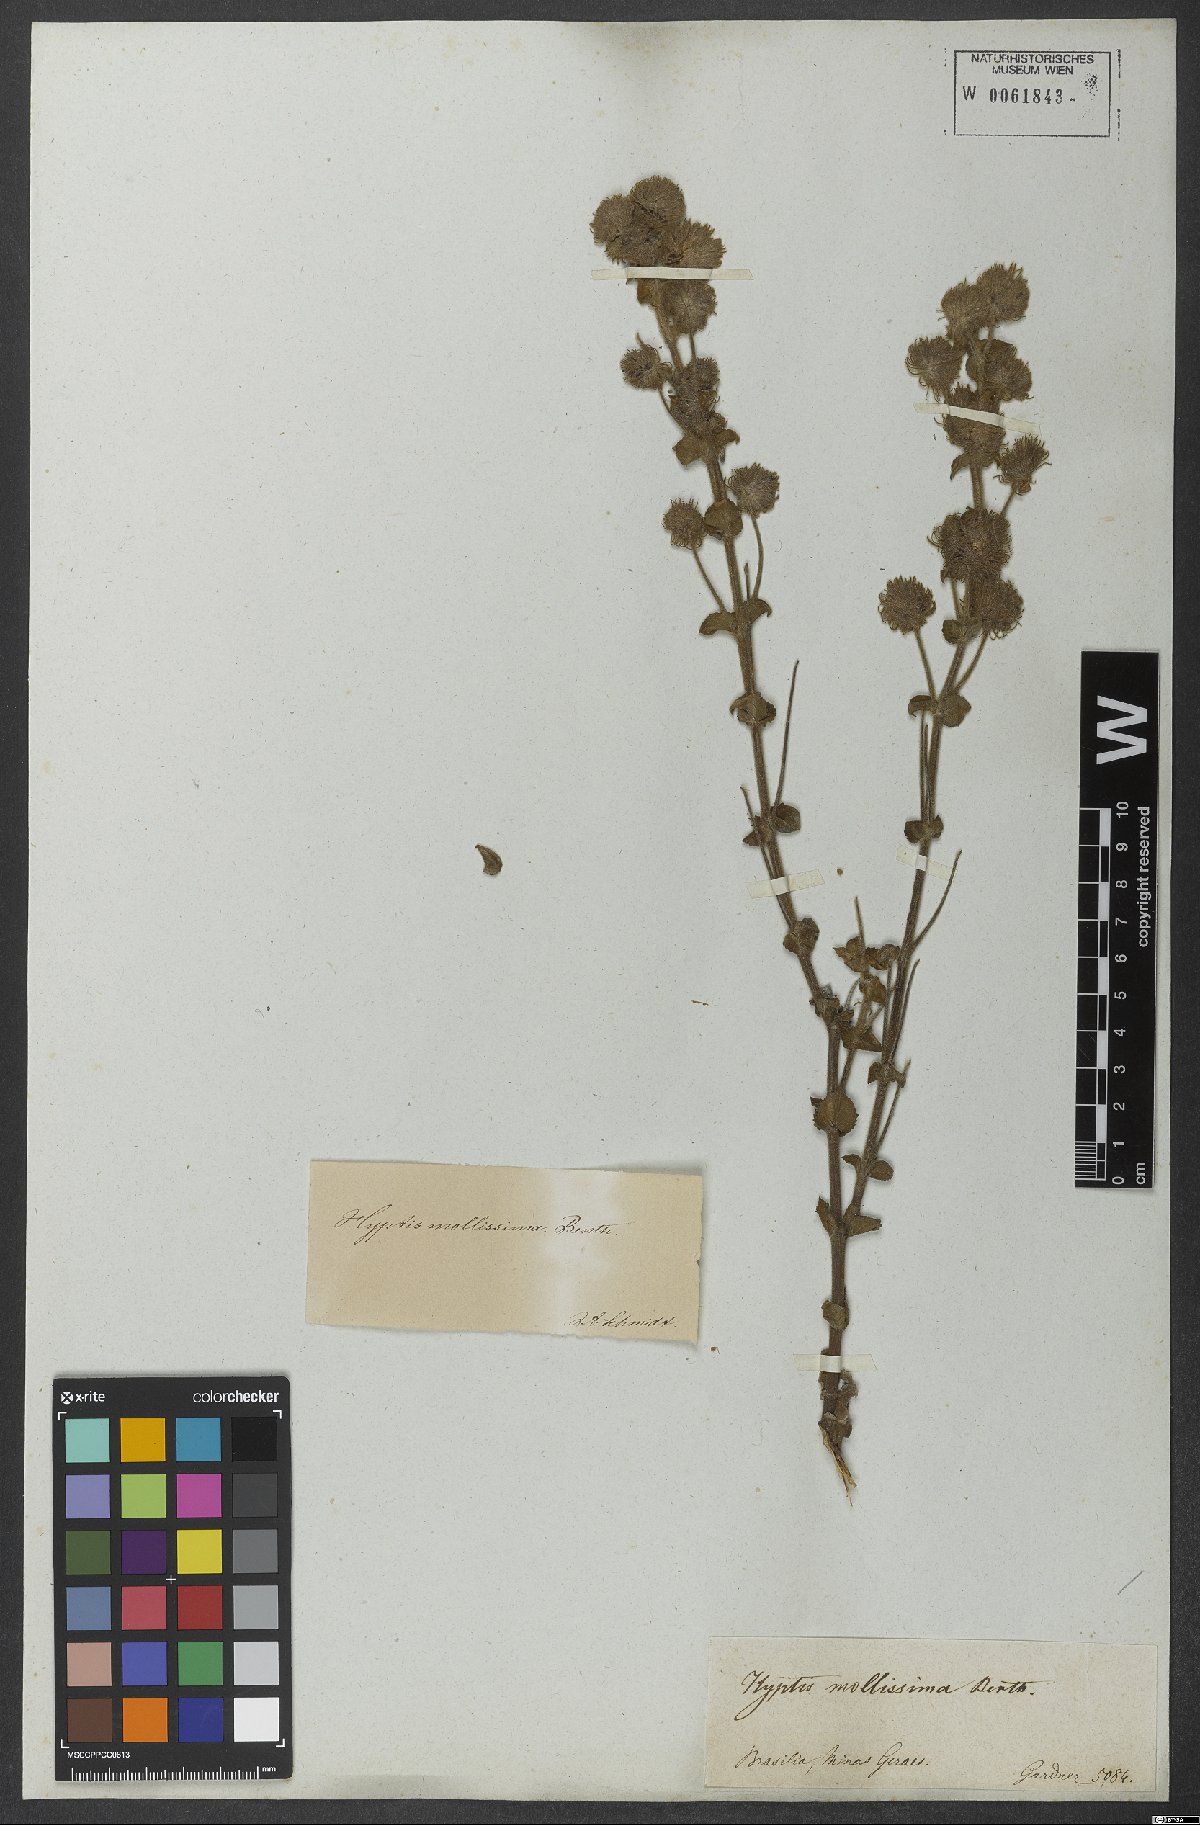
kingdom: Plantae
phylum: Tracheophyta
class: Magnoliopsida
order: Lamiales
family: Lamiaceae
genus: Medusantha
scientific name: Medusantha mollissima
